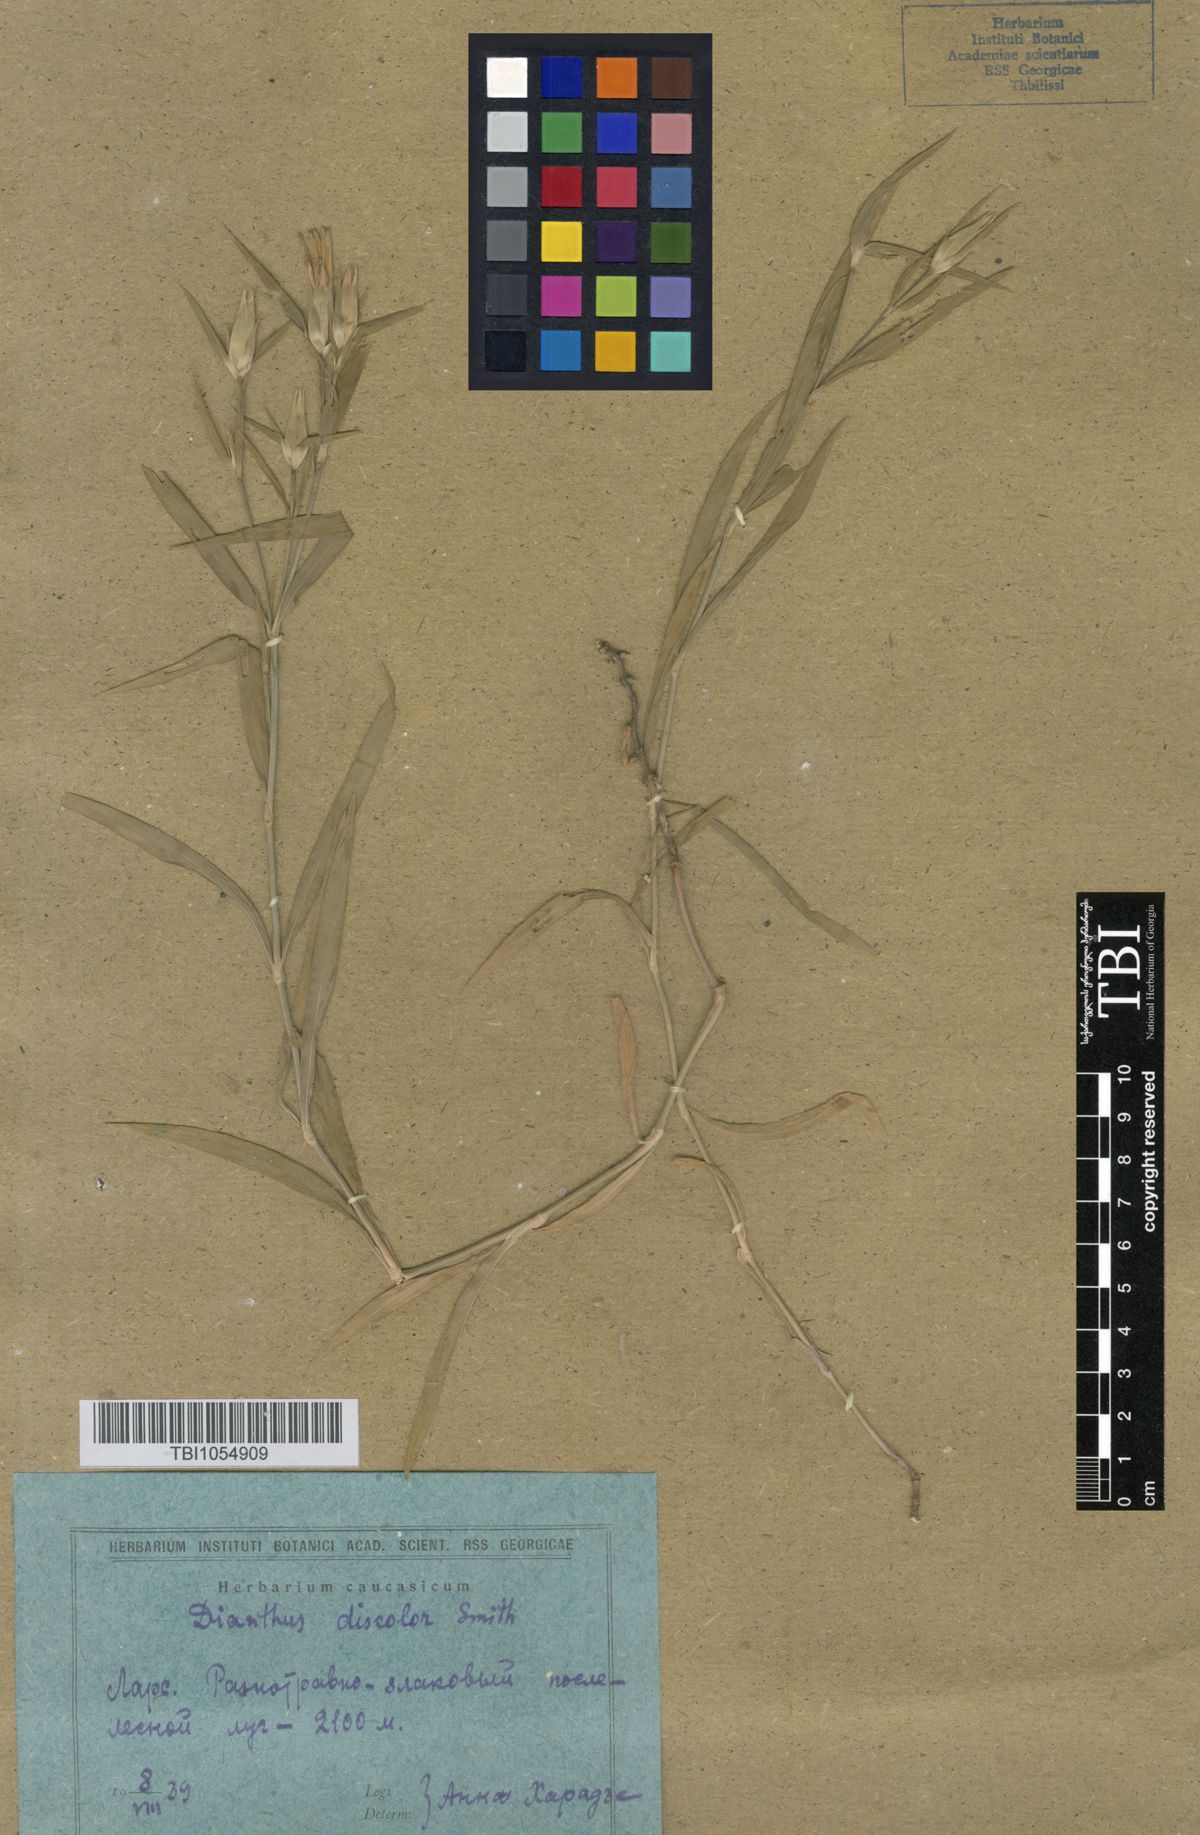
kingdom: Plantae
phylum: Tracheophyta
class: Magnoliopsida
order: Caryophyllales
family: Caryophyllaceae
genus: Dianthus
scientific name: Dianthus caucaseus
